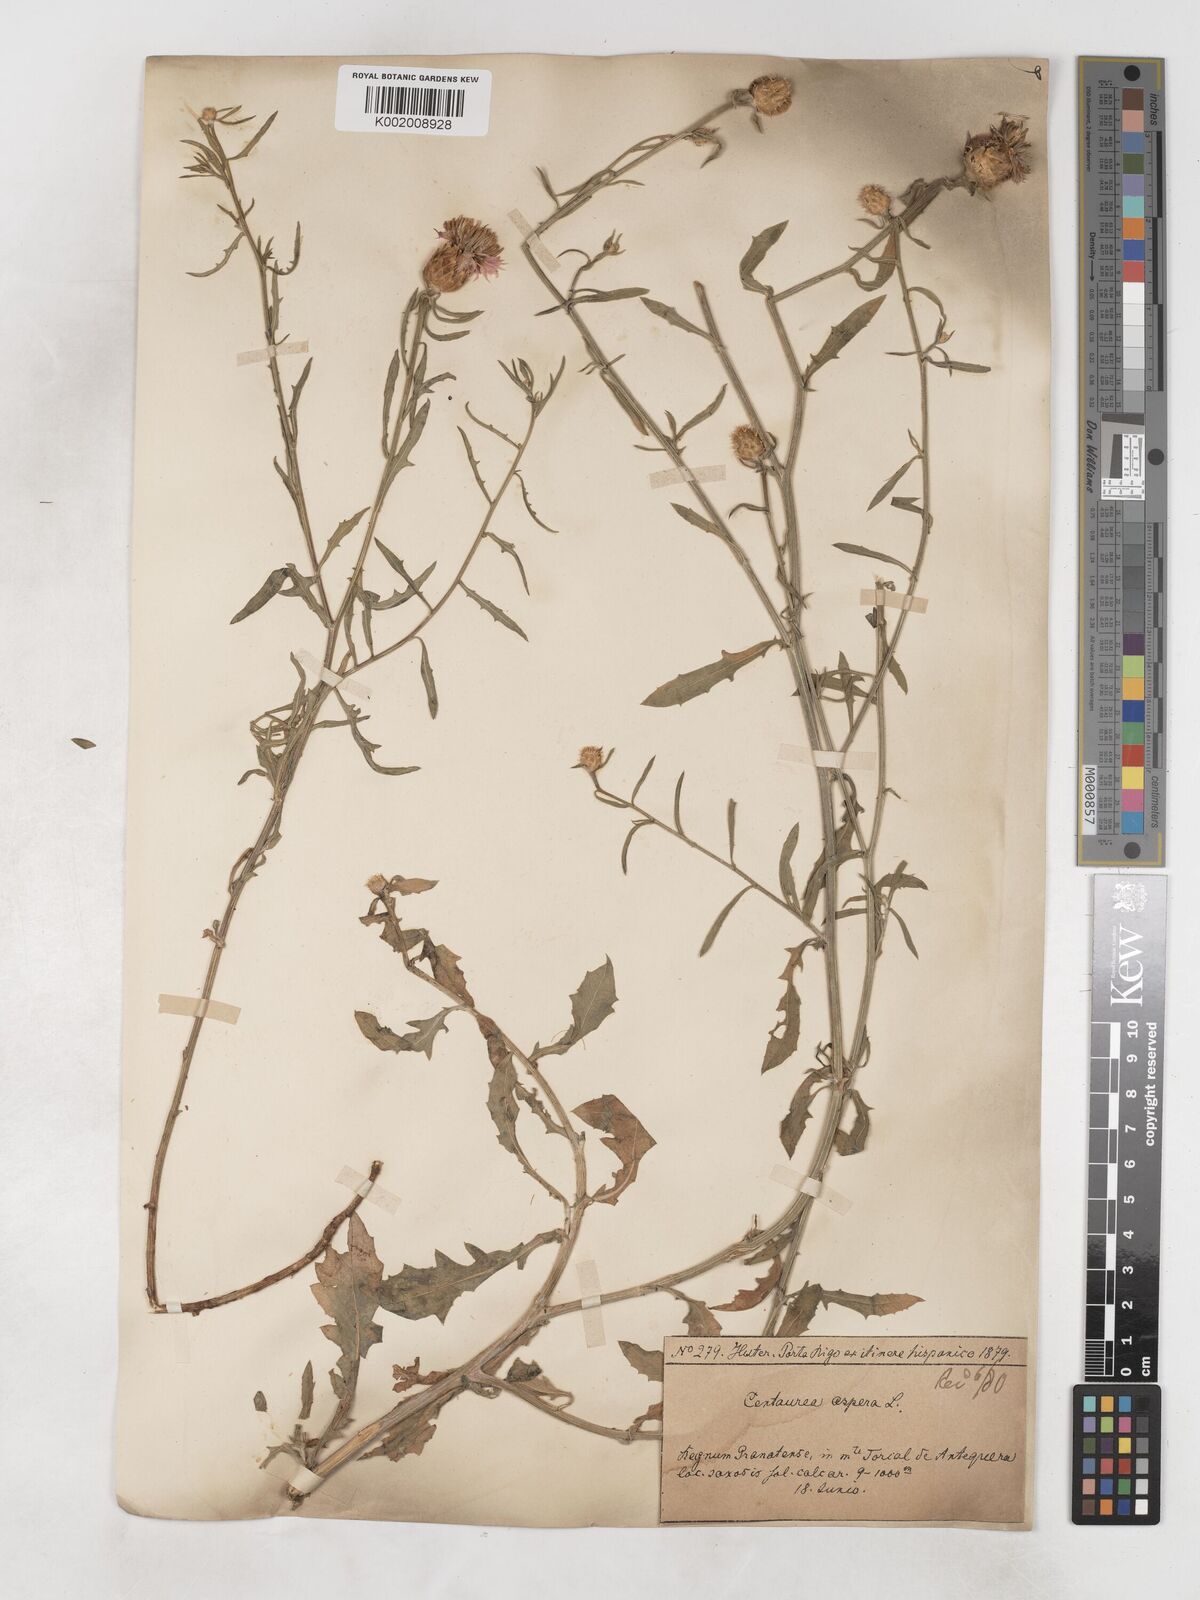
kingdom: Plantae
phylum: Tracheophyta
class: Magnoliopsida
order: Asterales
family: Asteraceae
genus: Centaurea
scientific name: Centaurea aspera
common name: Rough star-thistle
